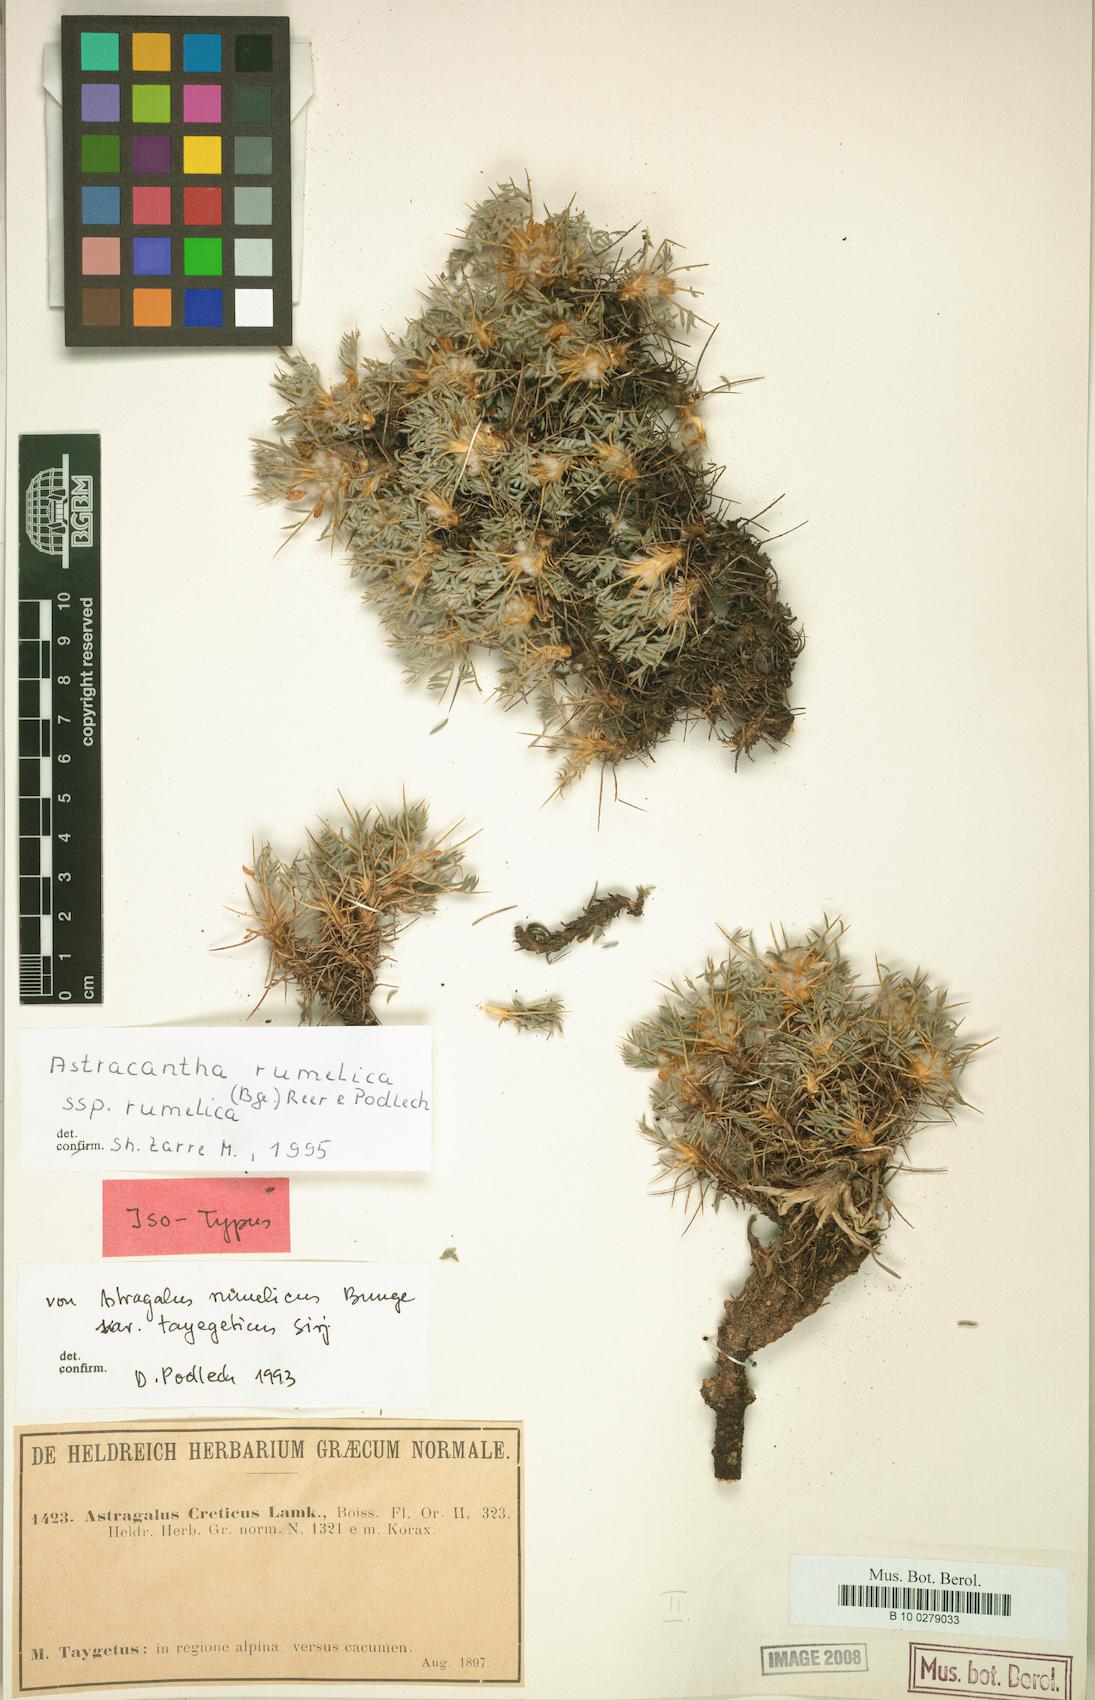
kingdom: Plantae
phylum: Tracheophyta
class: Magnoliopsida
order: Fabales
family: Fabaceae
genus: Astragalus
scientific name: Astragalus rumelicus
